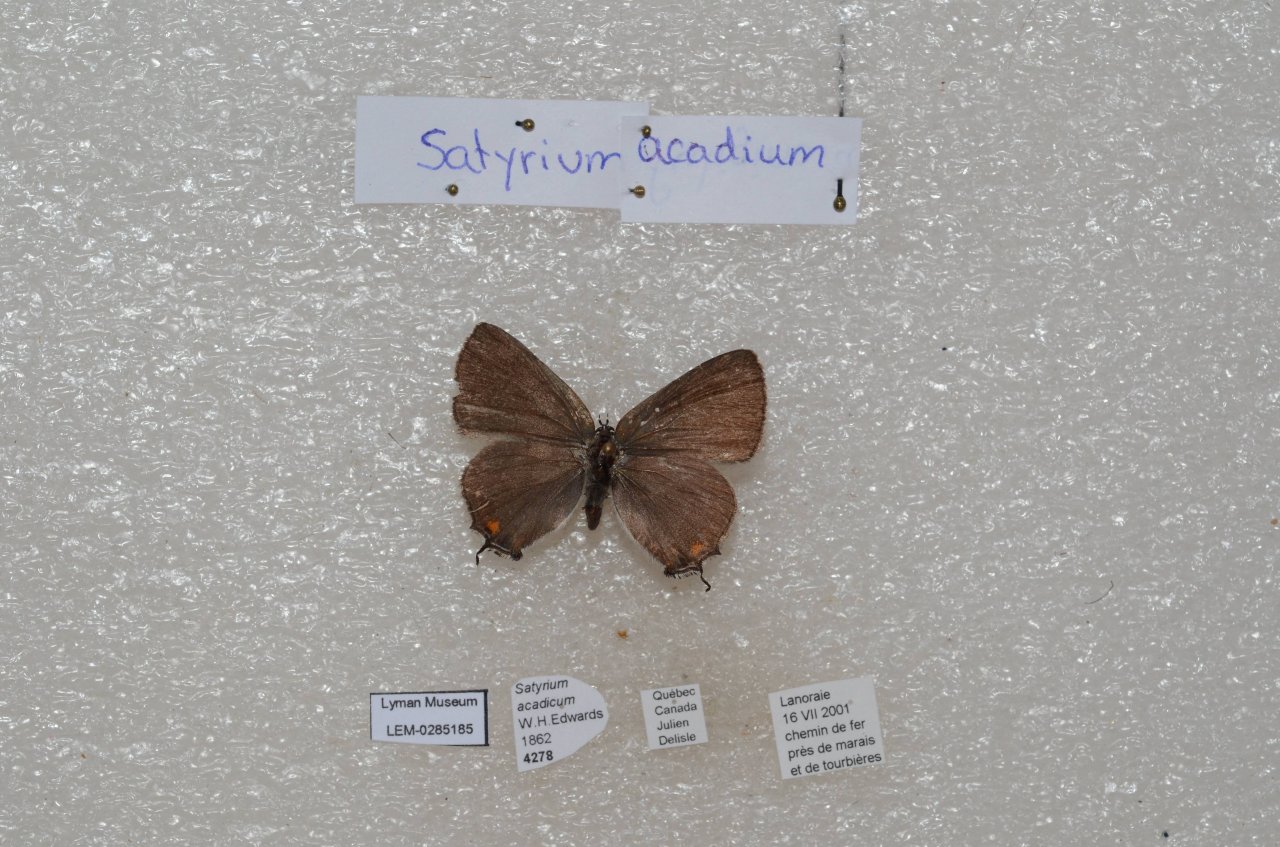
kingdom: Animalia
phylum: Arthropoda
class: Insecta
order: Lepidoptera
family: Lycaenidae
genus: Strymon
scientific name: Strymon acadica
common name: Acadian Hairstreak
